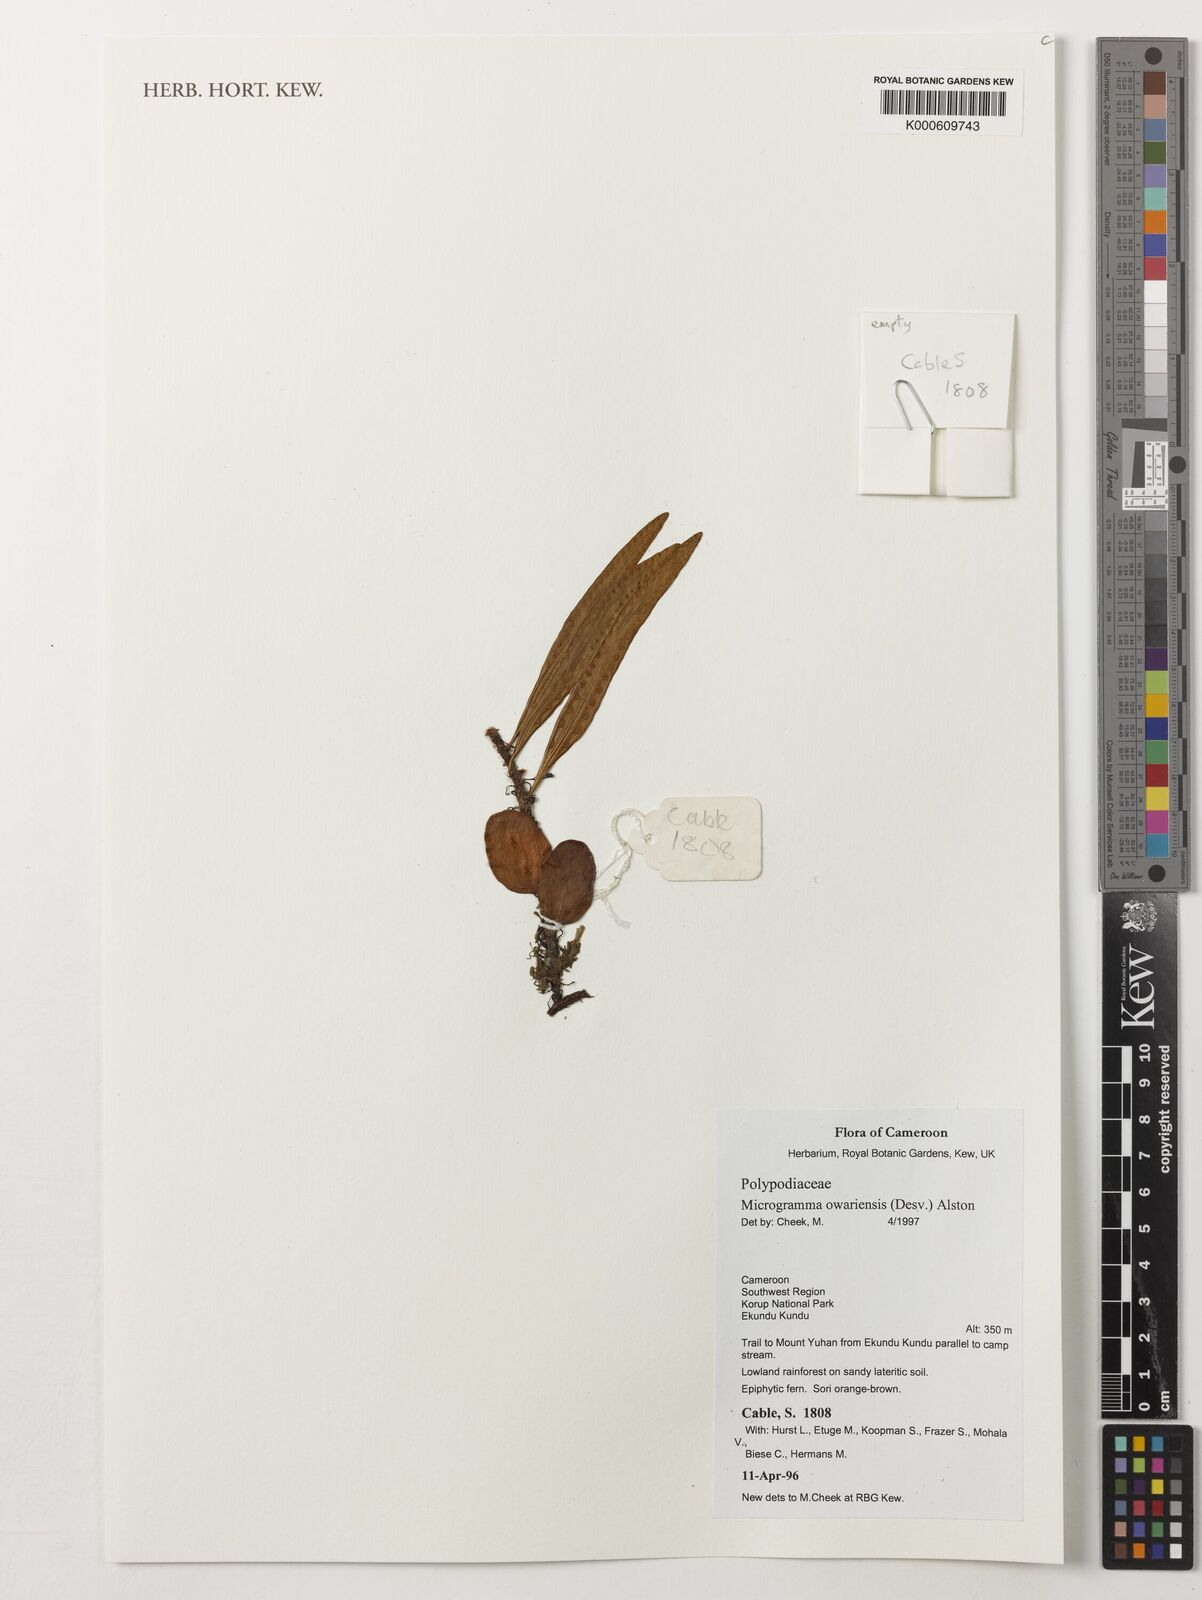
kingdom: Plantae
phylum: Tracheophyta
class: Polypodiopsida
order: Polypodiales
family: Polypodiaceae
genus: Microgramma
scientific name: Microgramma mauritiana
